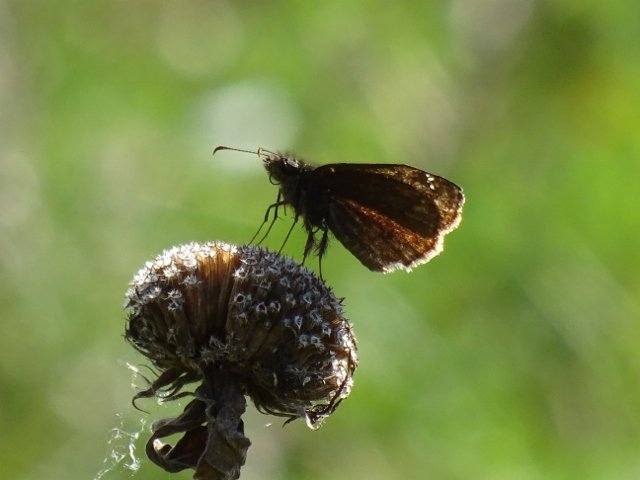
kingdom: Animalia
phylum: Arthropoda
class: Insecta
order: Lepidoptera
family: Hesperiidae
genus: Gesta
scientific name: Gesta
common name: Wild Indigo Duskywing
